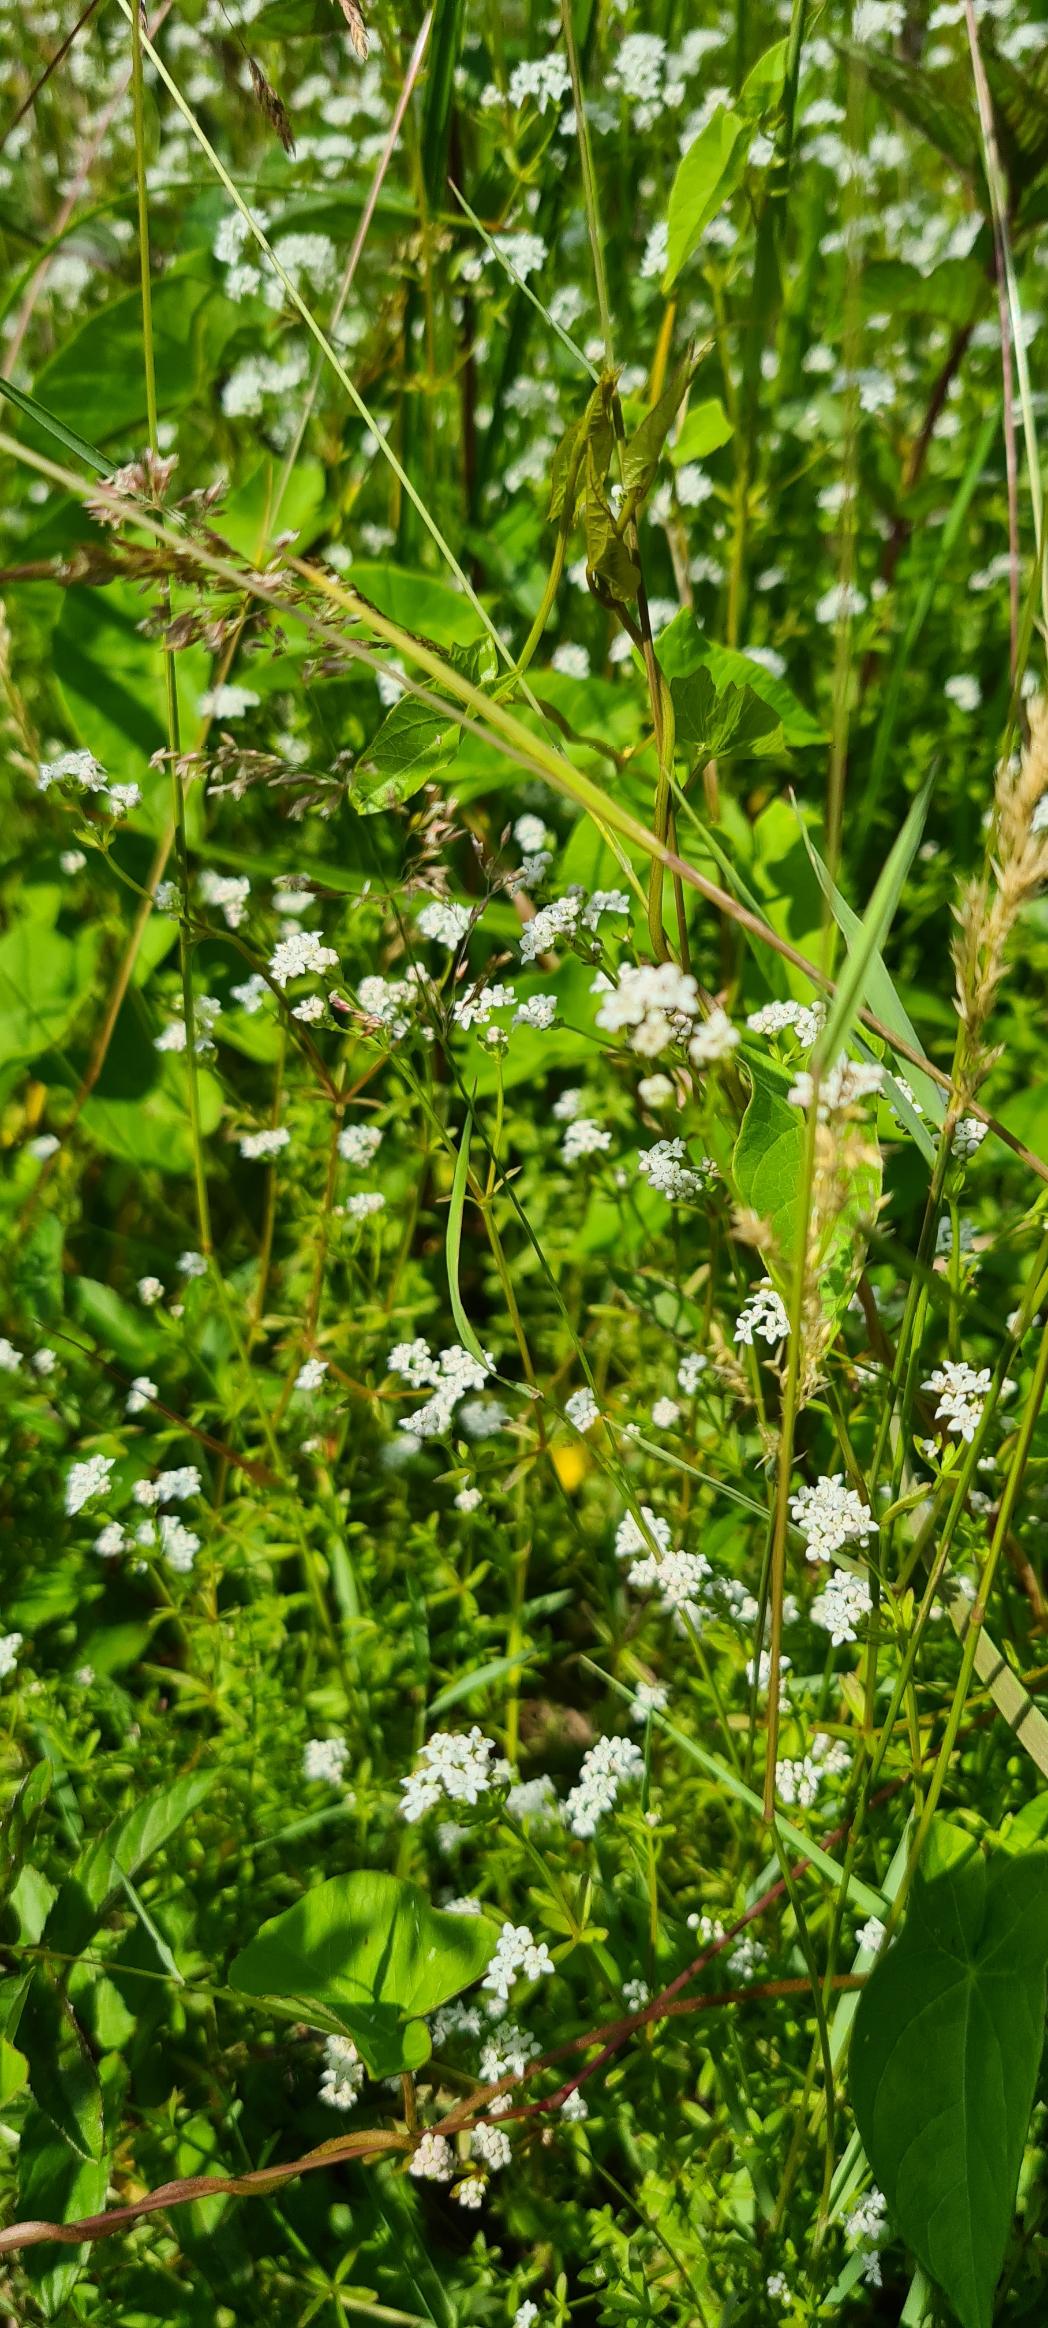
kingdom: Plantae
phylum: Tracheophyta
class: Magnoliopsida
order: Gentianales
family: Rubiaceae
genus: Galium
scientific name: Galium palustre
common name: Kær-snerre
